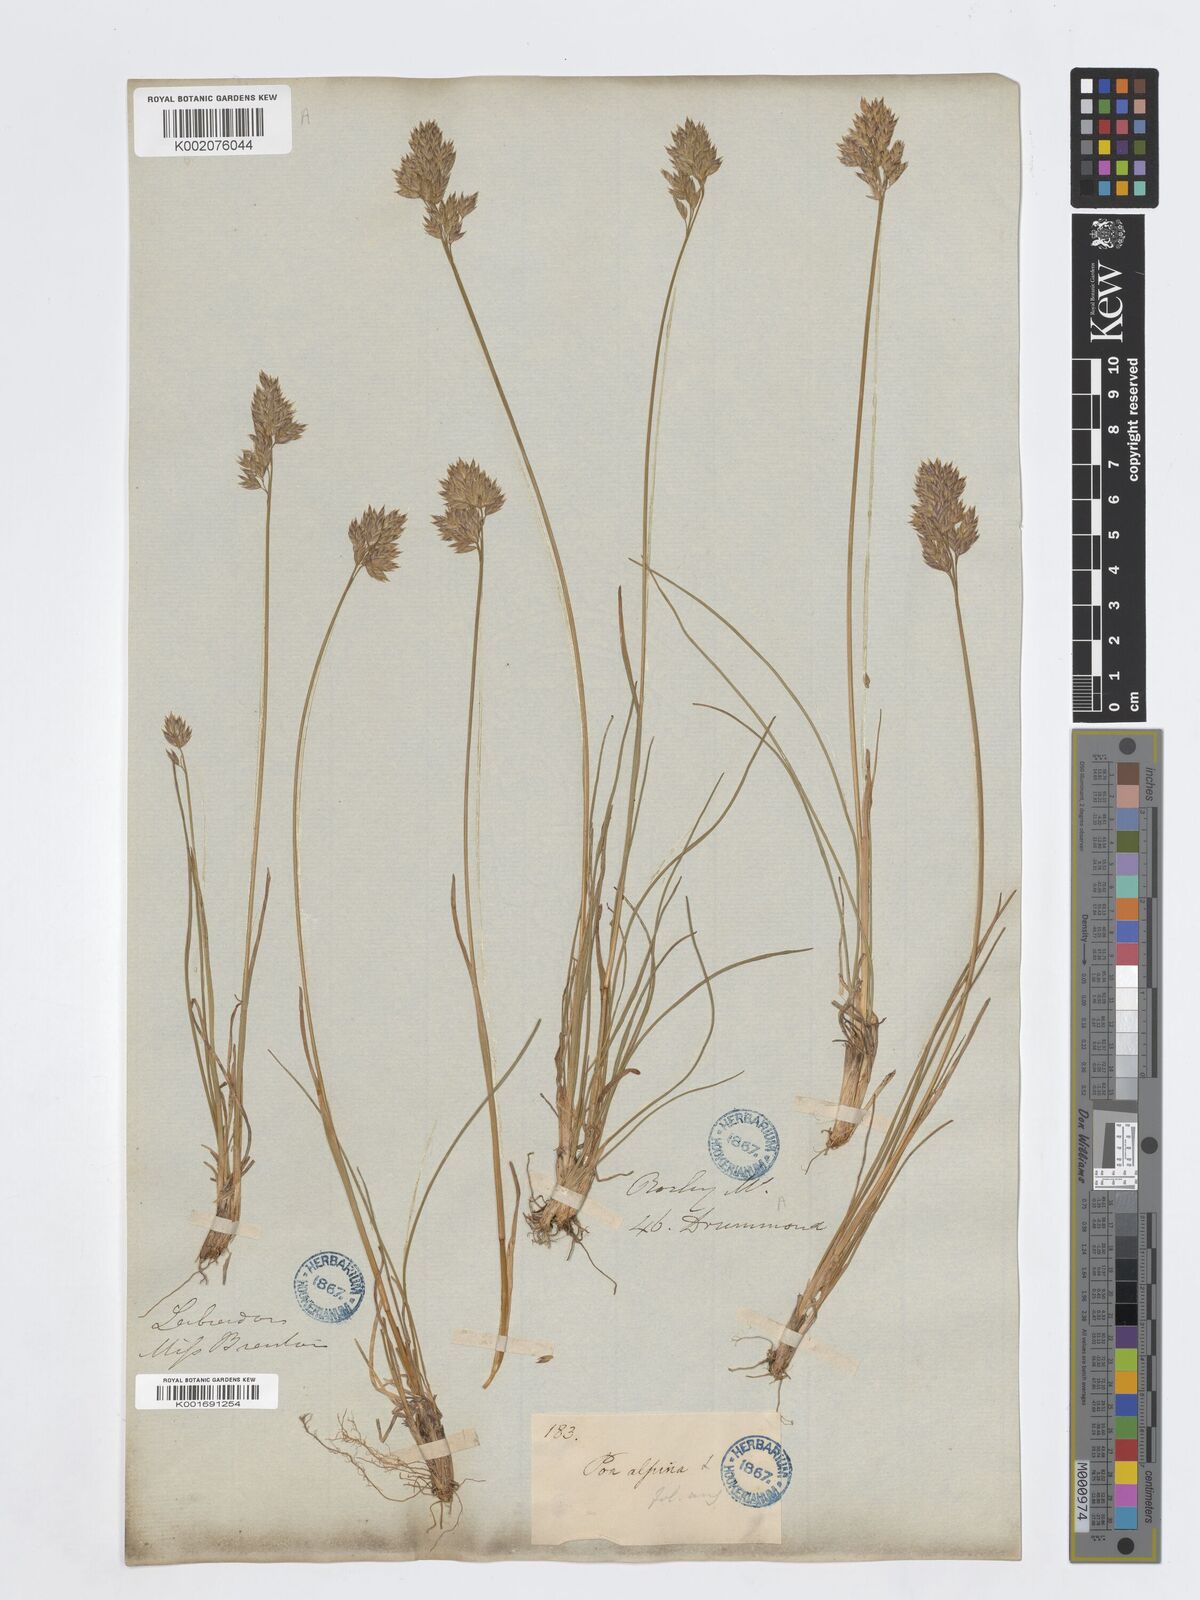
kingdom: Plantae
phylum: Tracheophyta
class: Liliopsida
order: Poales
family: Poaceae
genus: Poa
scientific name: Poa alpina
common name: Alpine bluegrass
